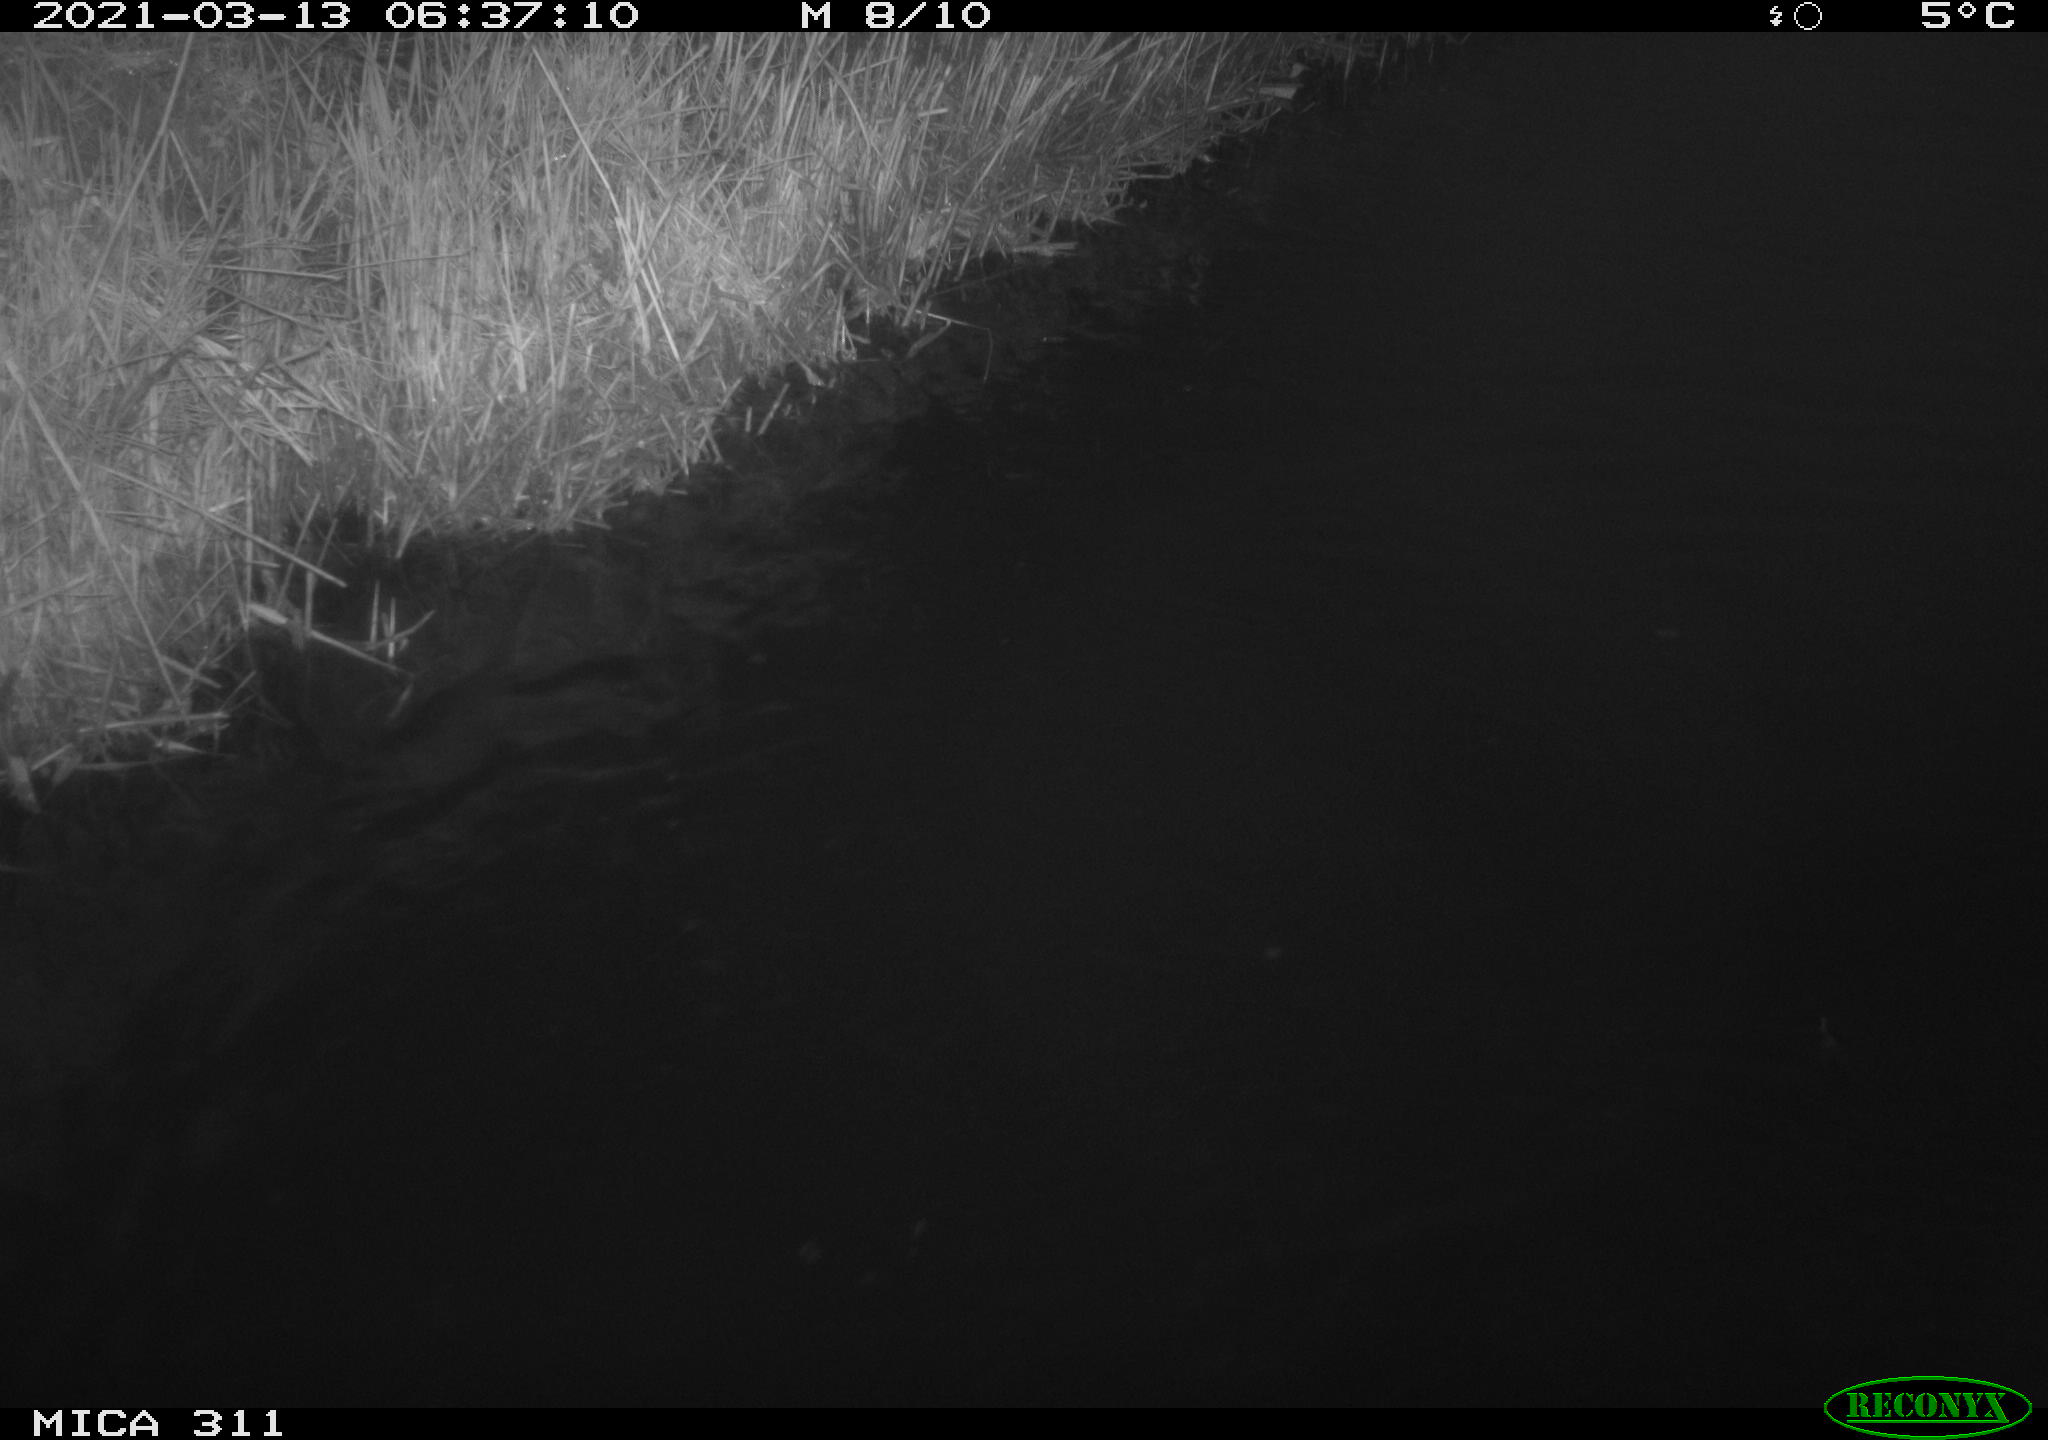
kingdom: Animalia
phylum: Chordata
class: Aves
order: Anseriformes
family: Anatidae
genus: Anas
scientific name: Anas
